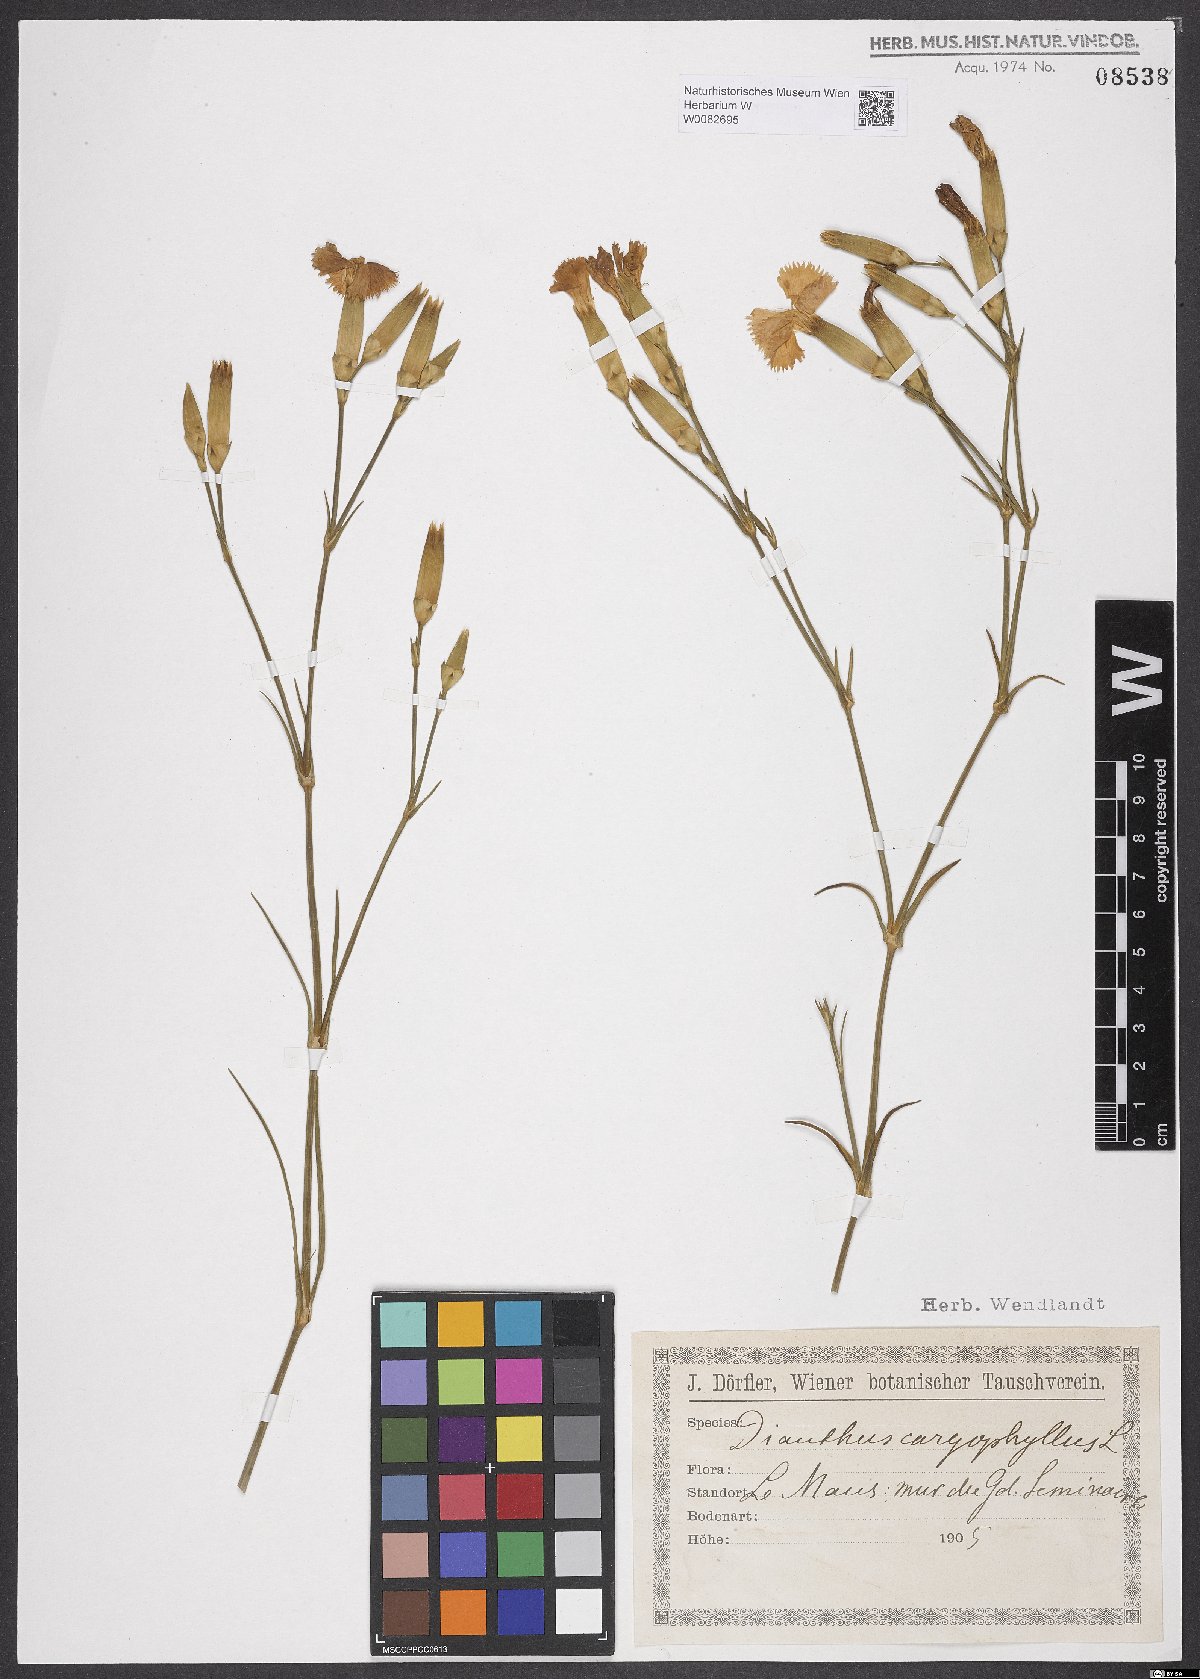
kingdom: Plantae
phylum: Tracheophyta
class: Magnoliopsida
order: Caryophyllales
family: Caryophyllaceae
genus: Dianthus
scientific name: Dianthus caryophyllus
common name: Clove pink
